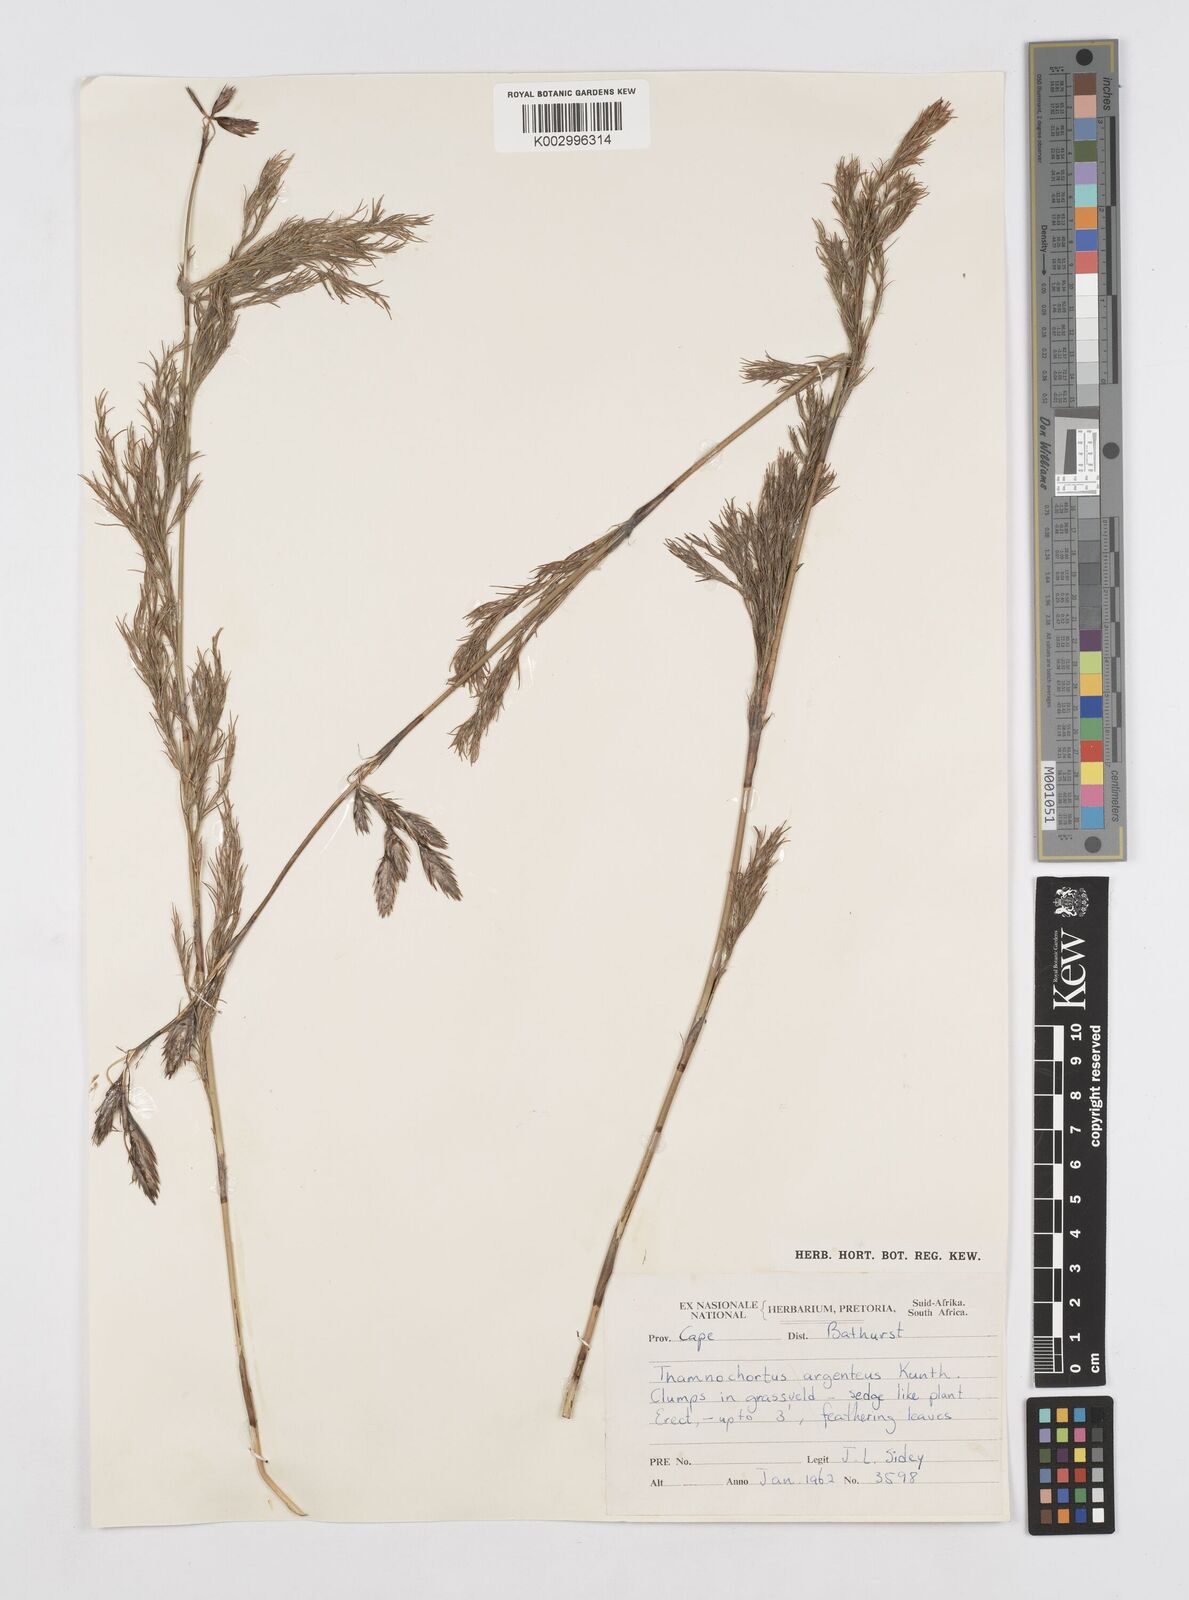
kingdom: Plantae
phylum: Tracheophyta
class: Liliopsida
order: Poales
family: Restionaceae
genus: Hypodiscus
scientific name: Hypodiscus argenteus
